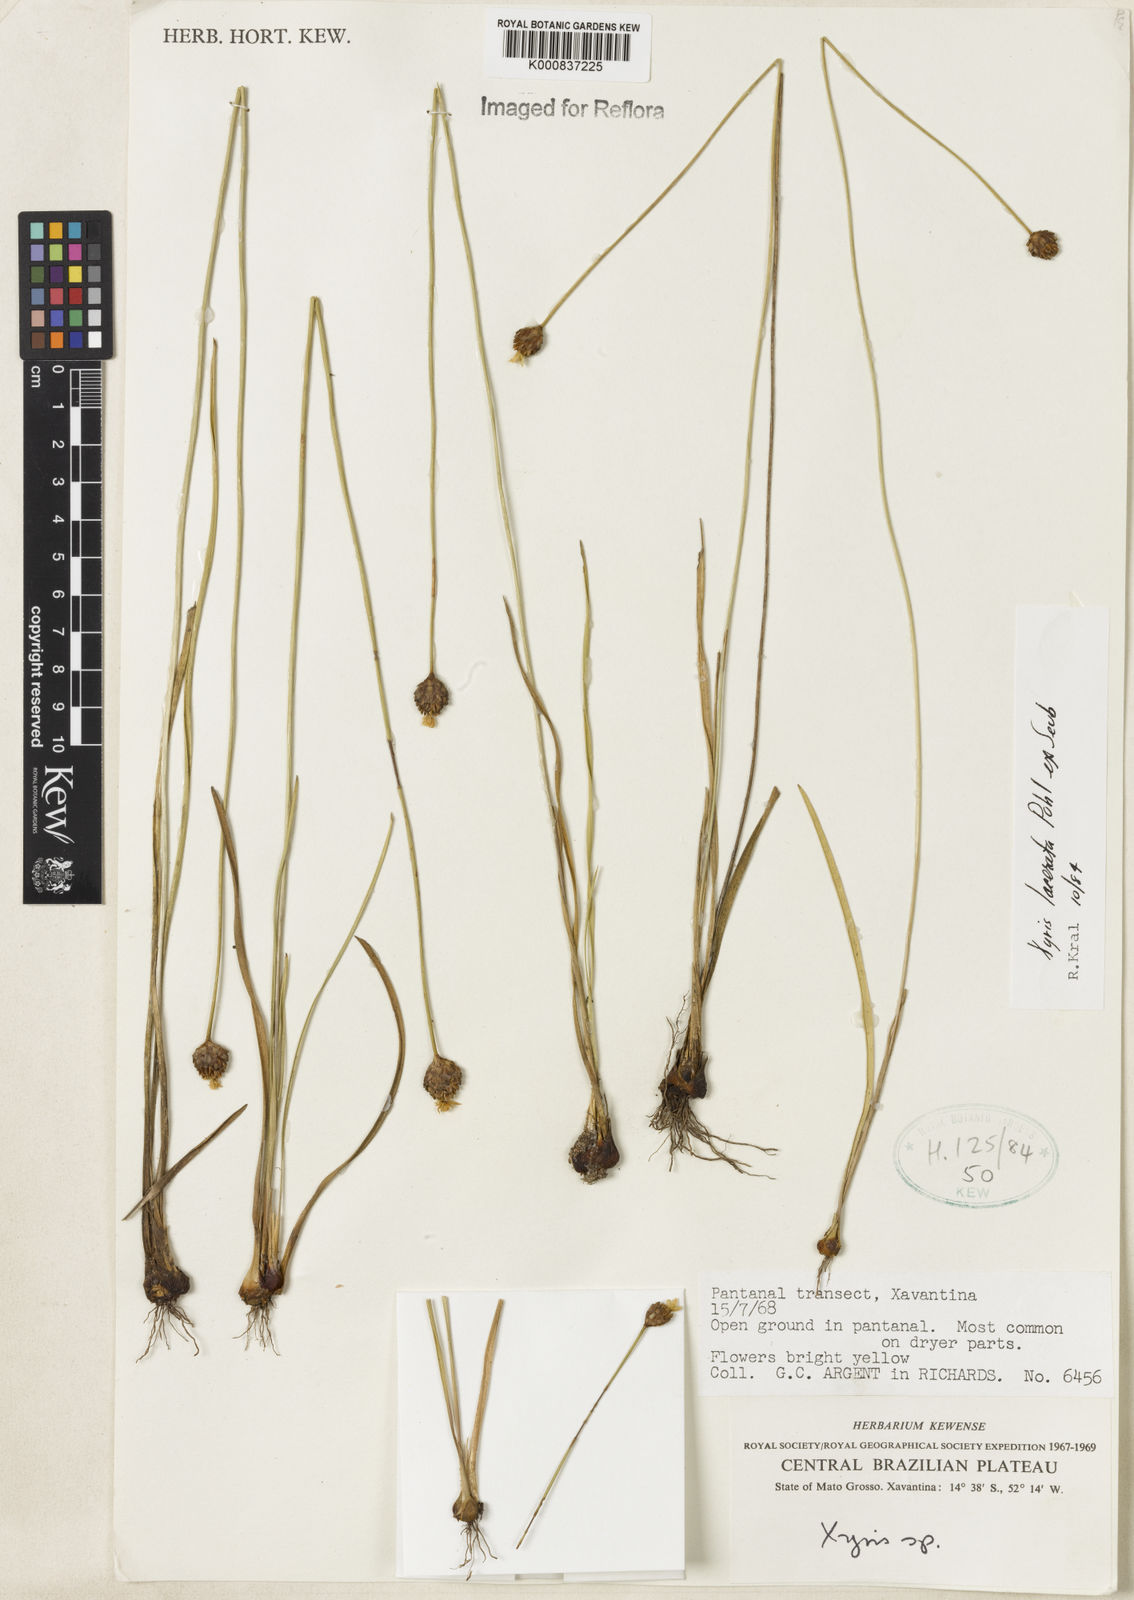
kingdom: Plantae
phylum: Tracheophyta
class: Liliopsida
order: Poales
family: Xyridaceae
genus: Xyris
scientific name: Xyris lacerata
